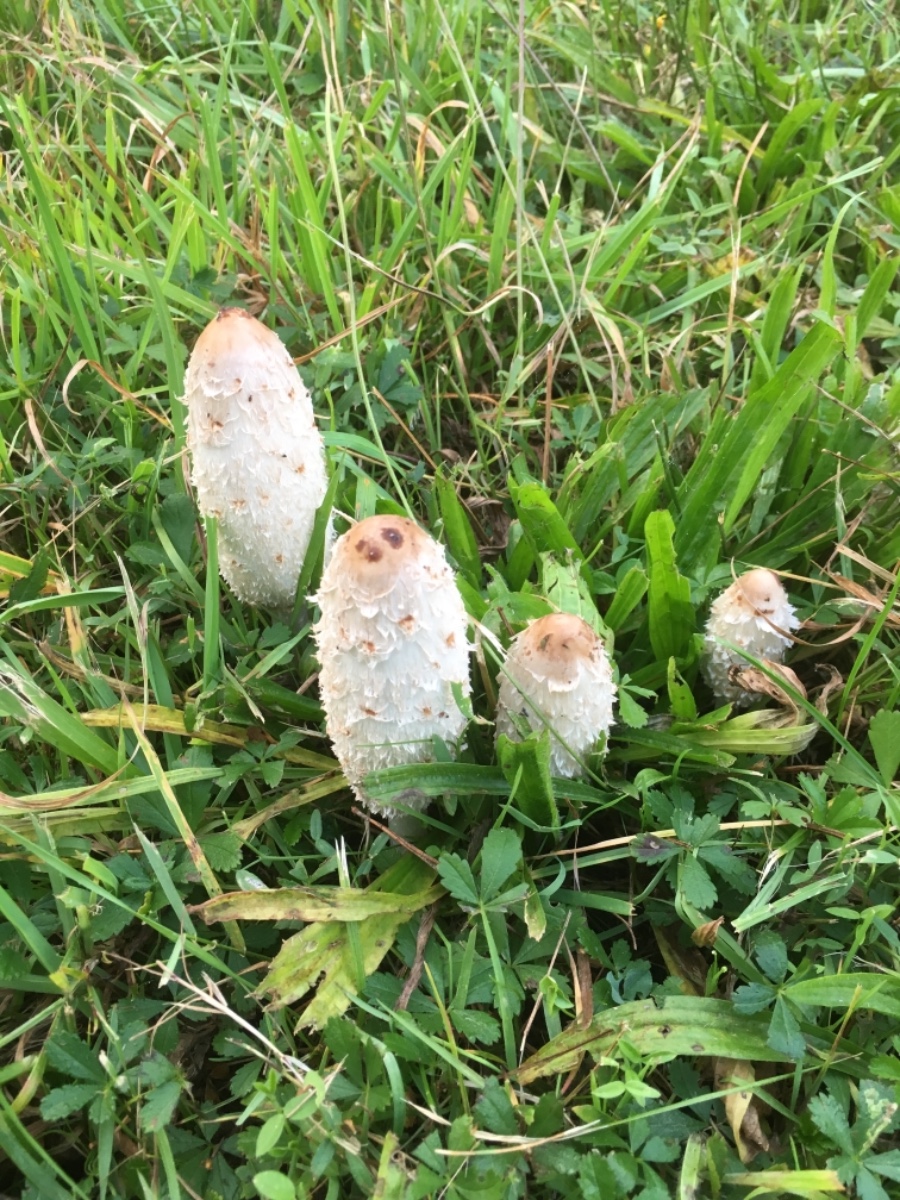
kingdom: Fungi
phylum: Basidiomycota
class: Agaricomycetes
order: Agaricales
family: Agaricaceae
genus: Coprinus
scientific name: Coprinus comatus
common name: stor parykhat
